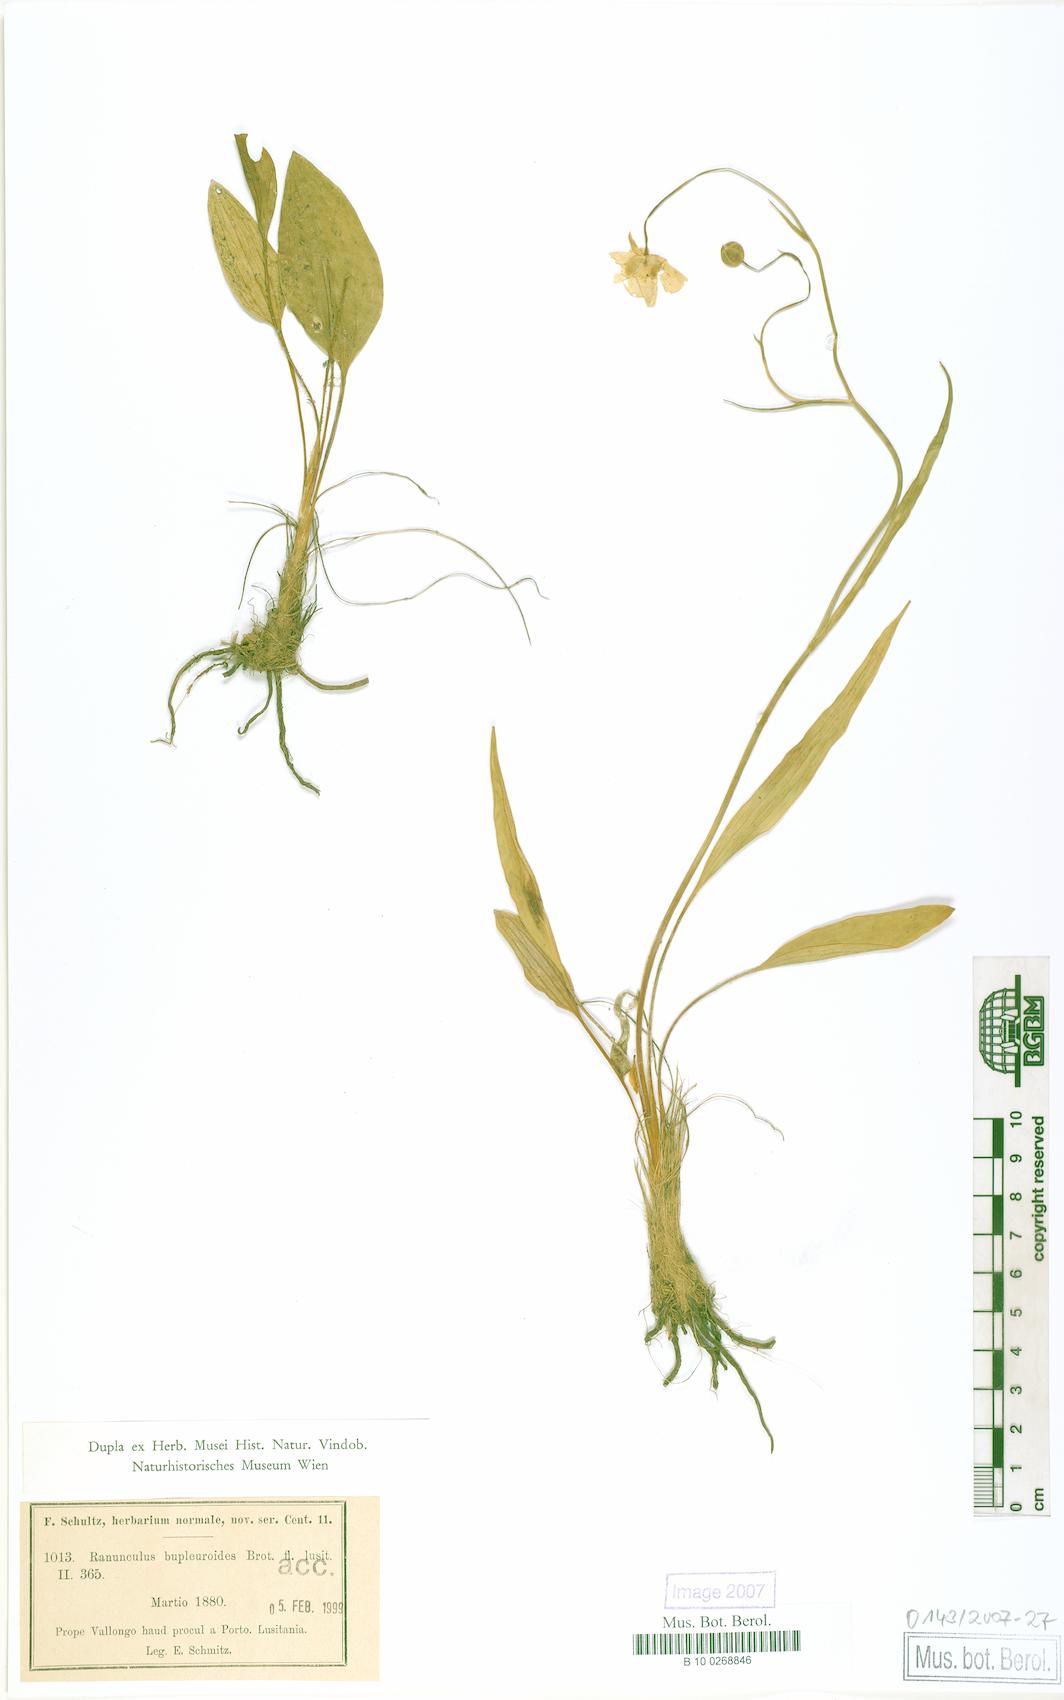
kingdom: Plantae
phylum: Tracheophyta
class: Magnoliopsida
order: Ranunculales
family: Ranunculaceae
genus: Ranunculus
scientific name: Ranunculus bupleuroides
